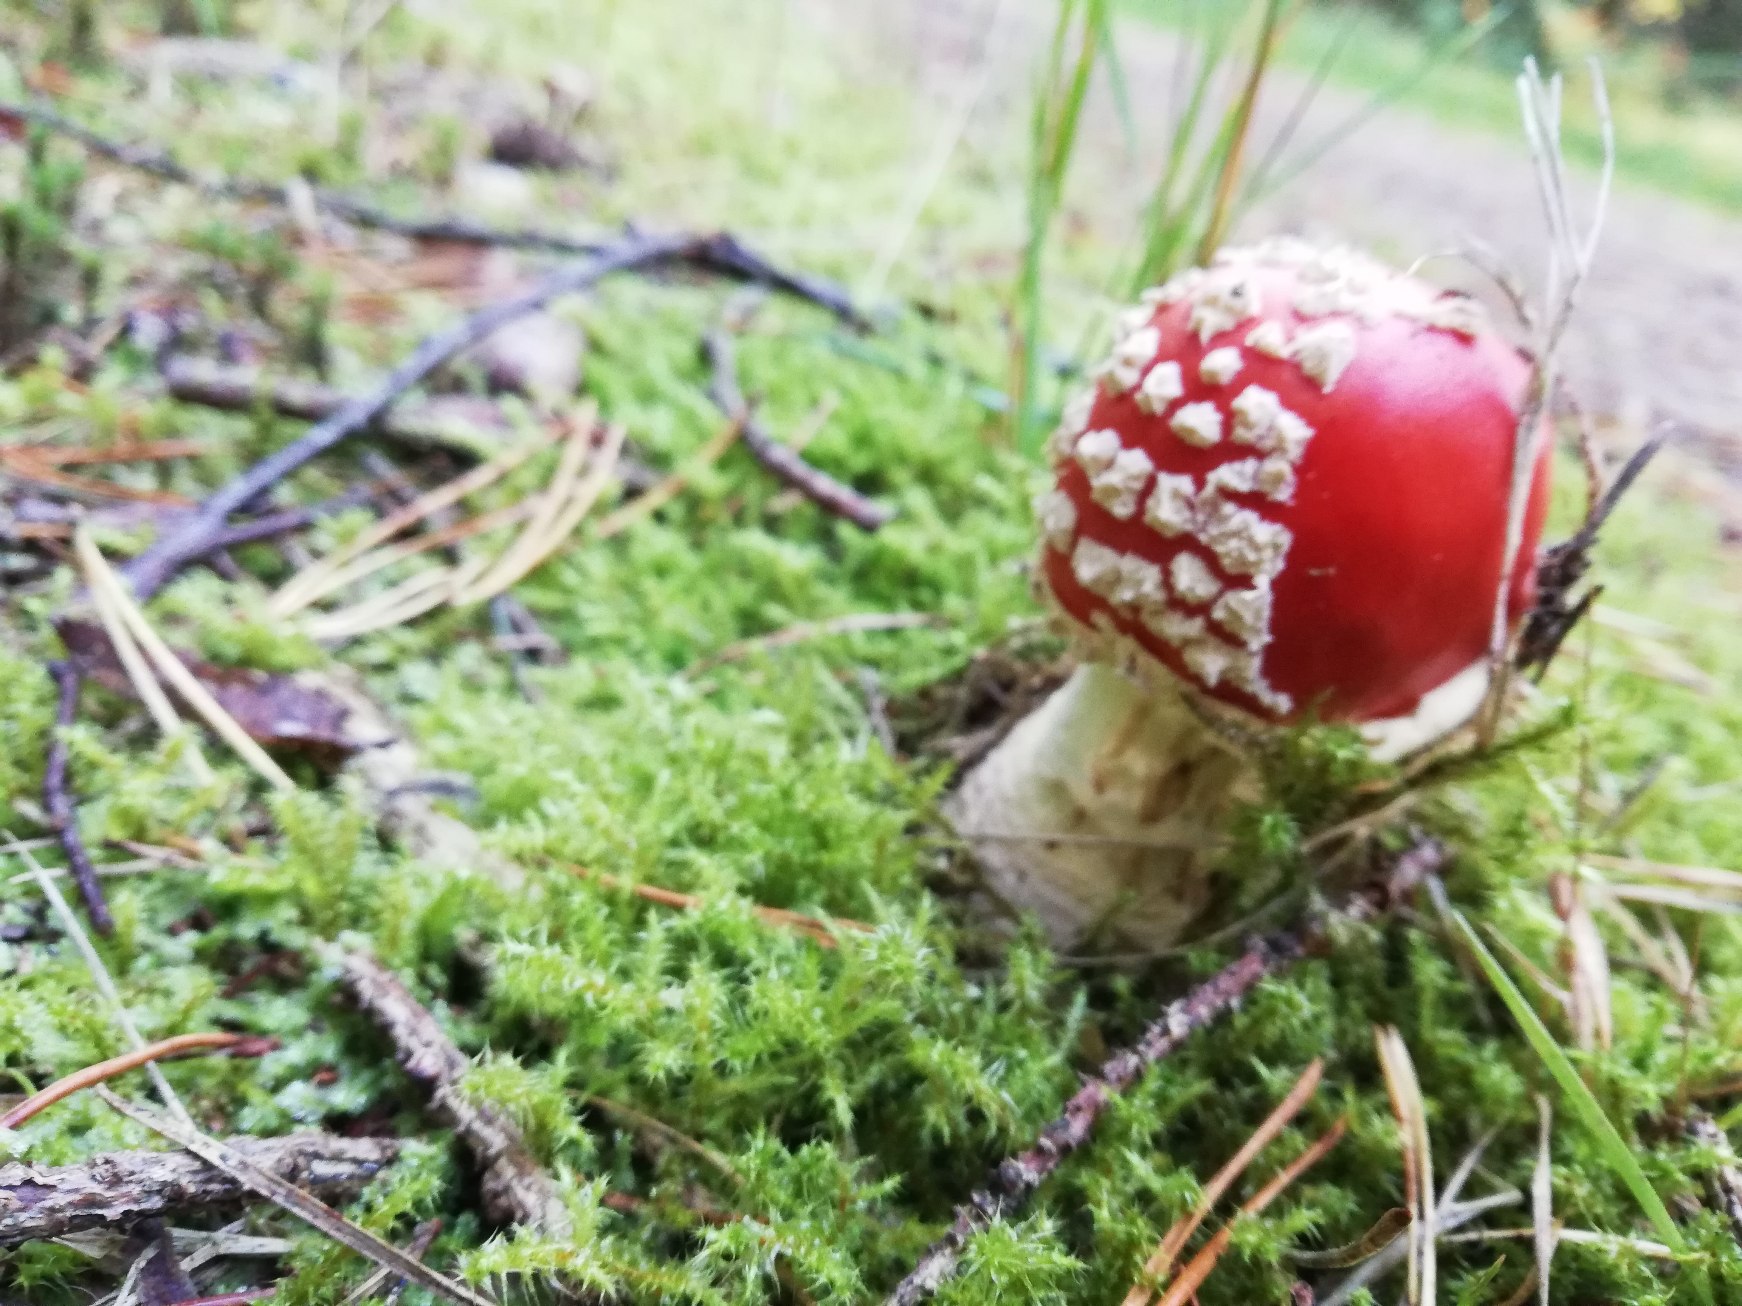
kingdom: Fungi
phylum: Basidiomycota
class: Agaricomycetes
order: Agaricales
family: Amanitaceae
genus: Amanita
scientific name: Amanita muscaria
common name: Rød fluesvamp
